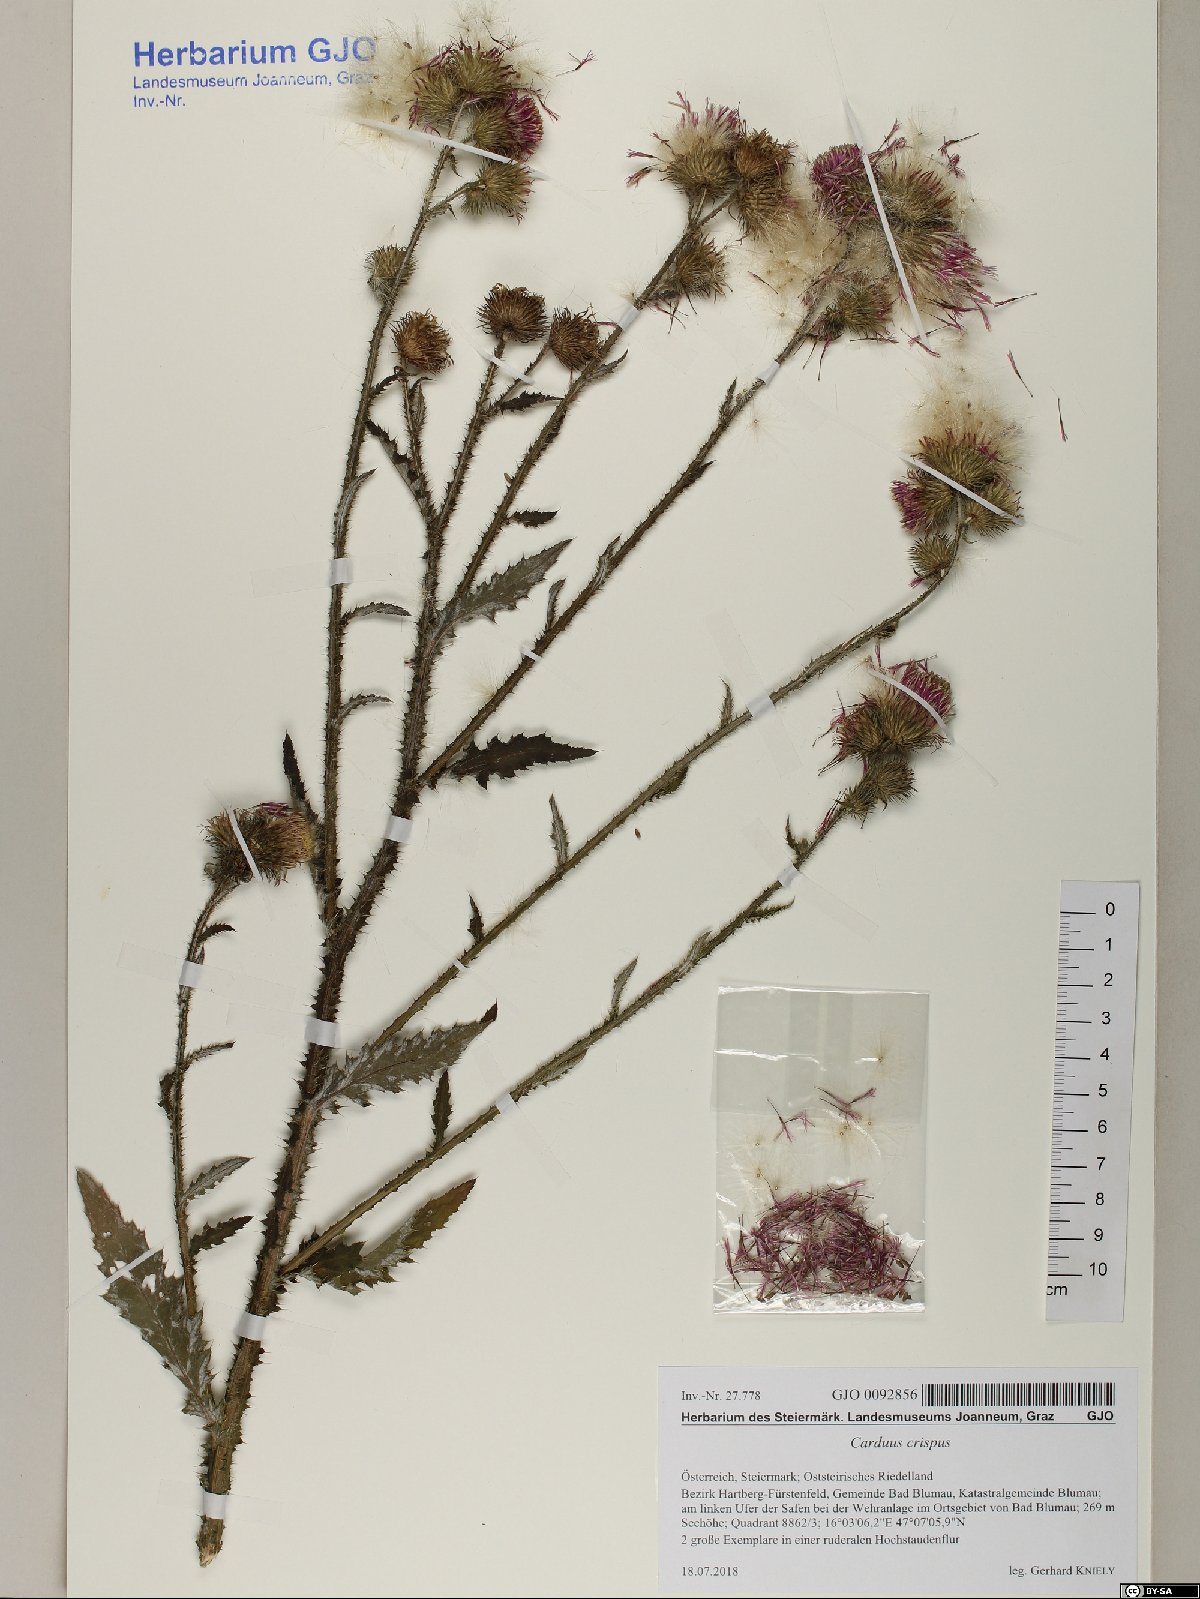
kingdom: Plantae
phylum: Tracheophyta
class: Magnoliopsida
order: Asterales
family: Asteraceae
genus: Carduus
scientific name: Carduus crispus
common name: Welted thistle
